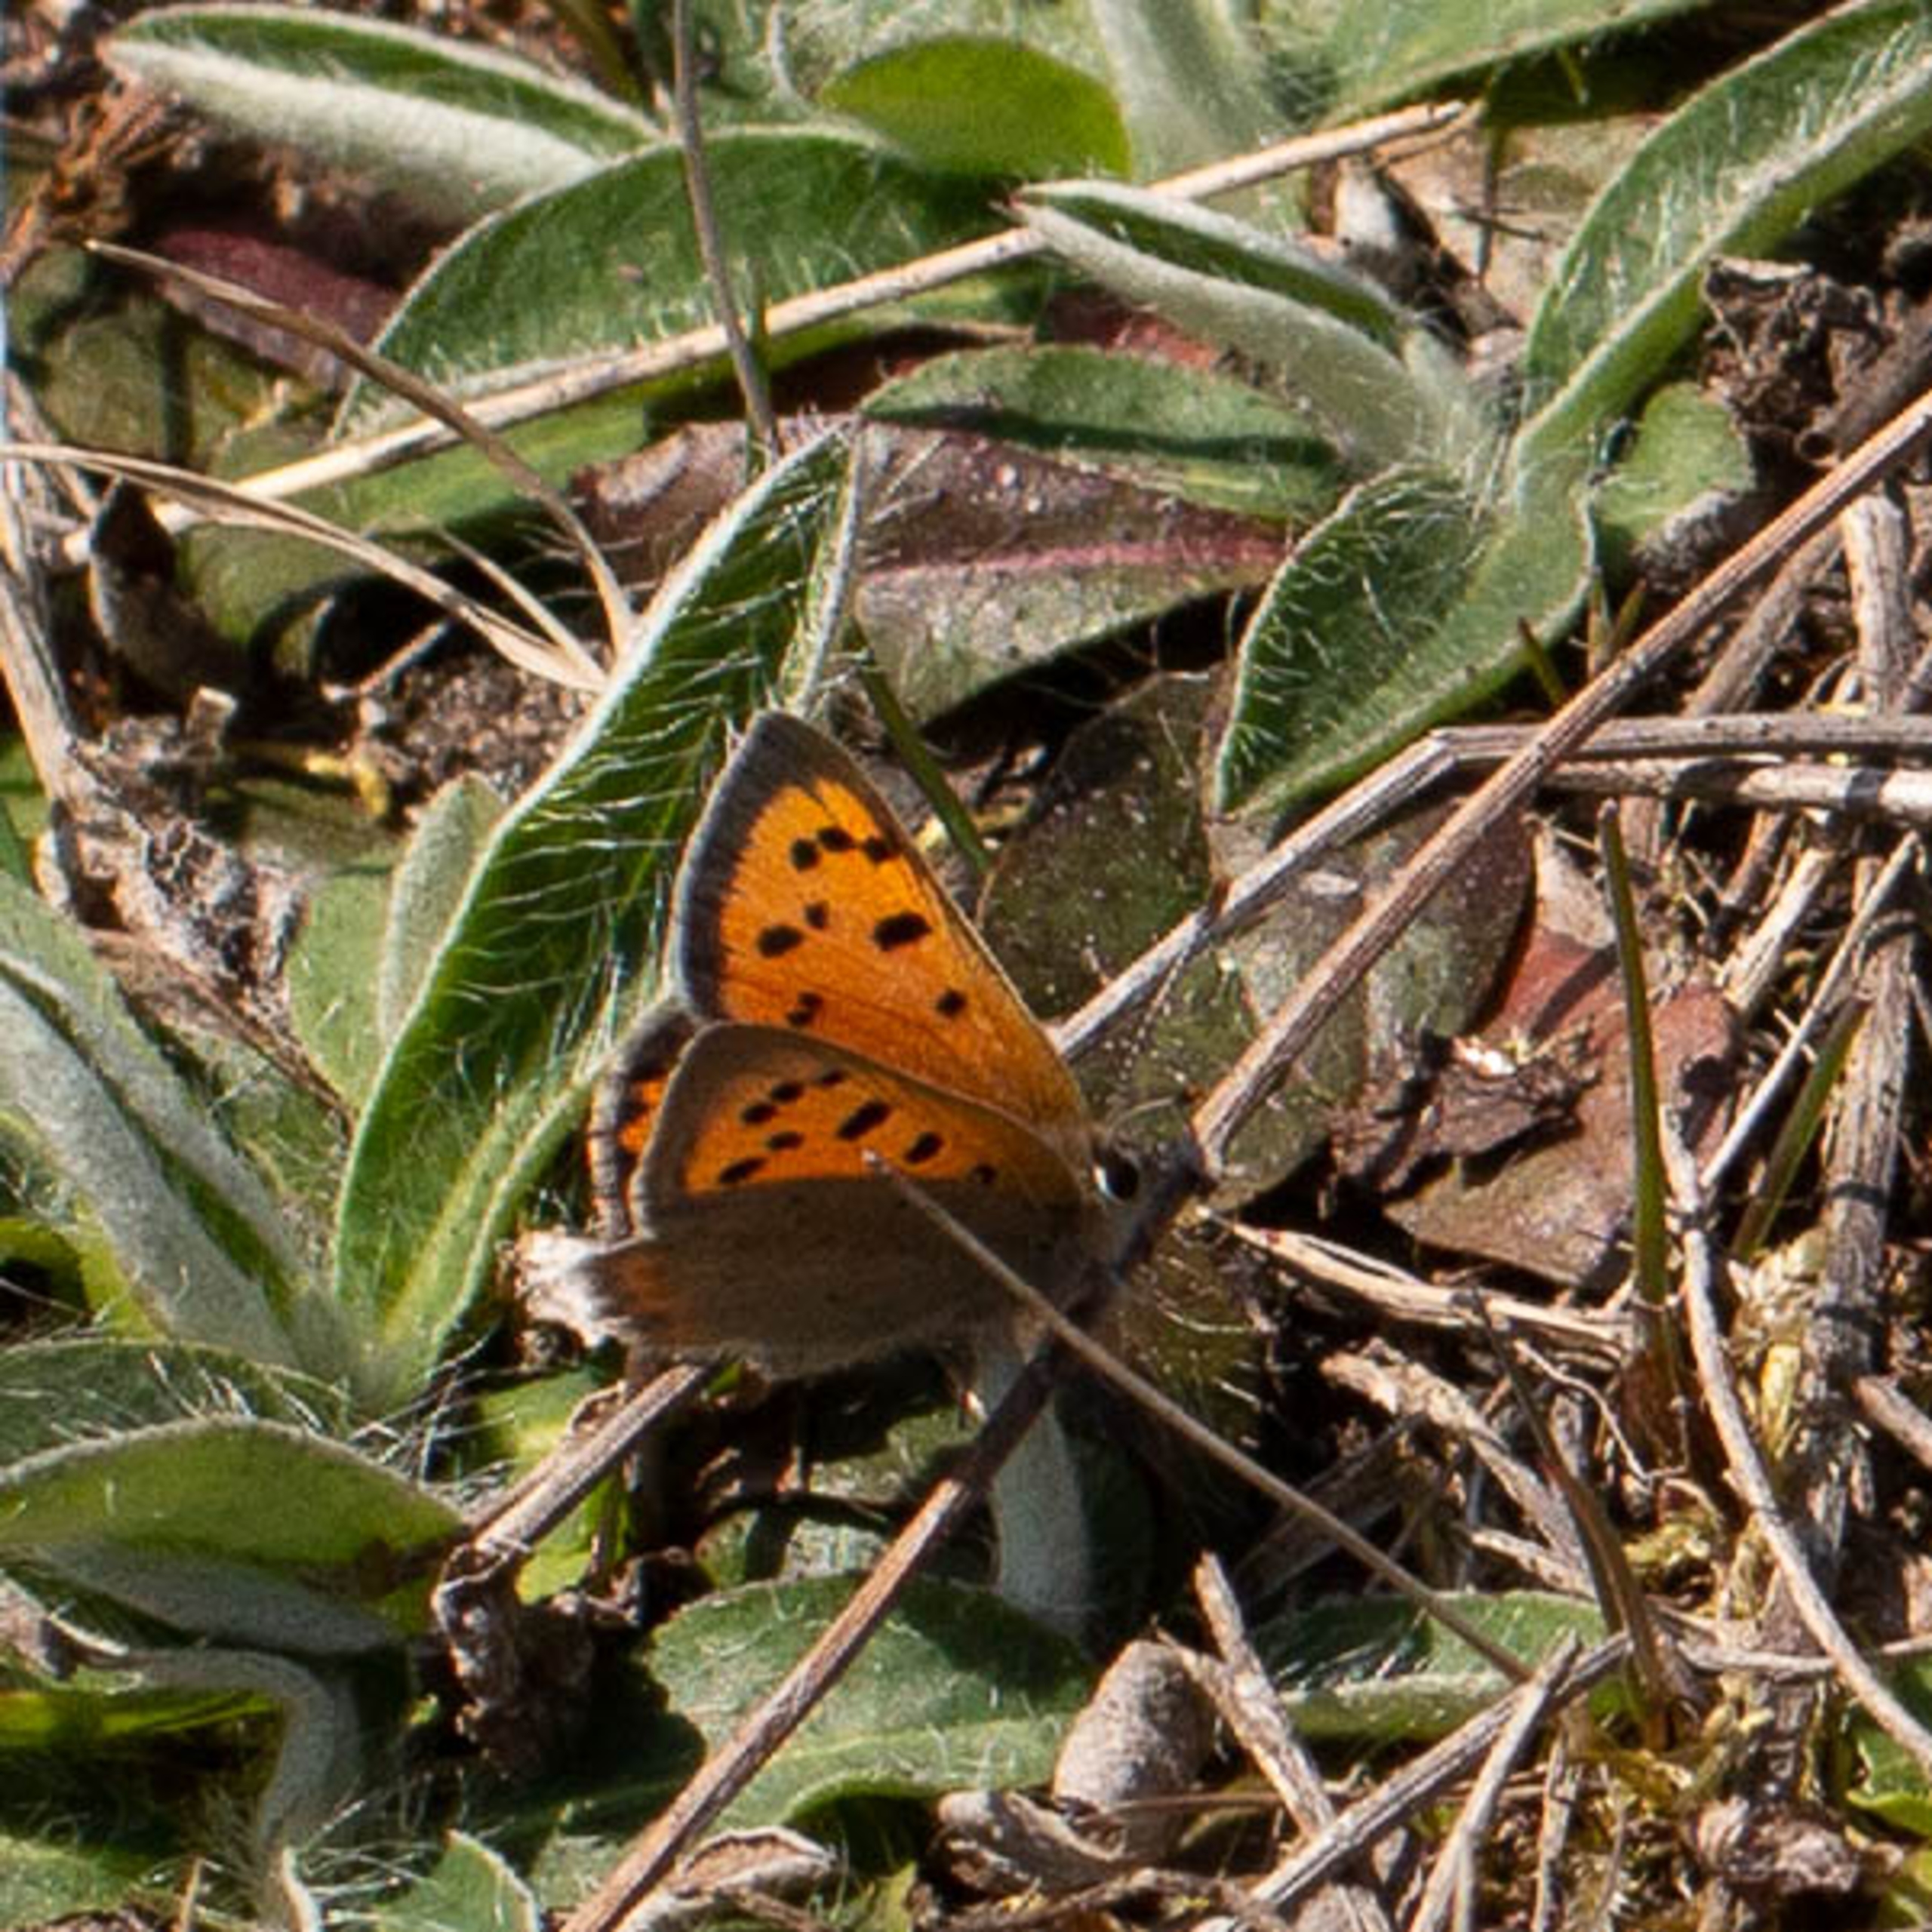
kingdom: Animalia
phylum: Arthropoda
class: Insecta
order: Lepidoptera
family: Lycaenidae
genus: Lycaena
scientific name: Lycaena phlaeas
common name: Lille ildfugl
